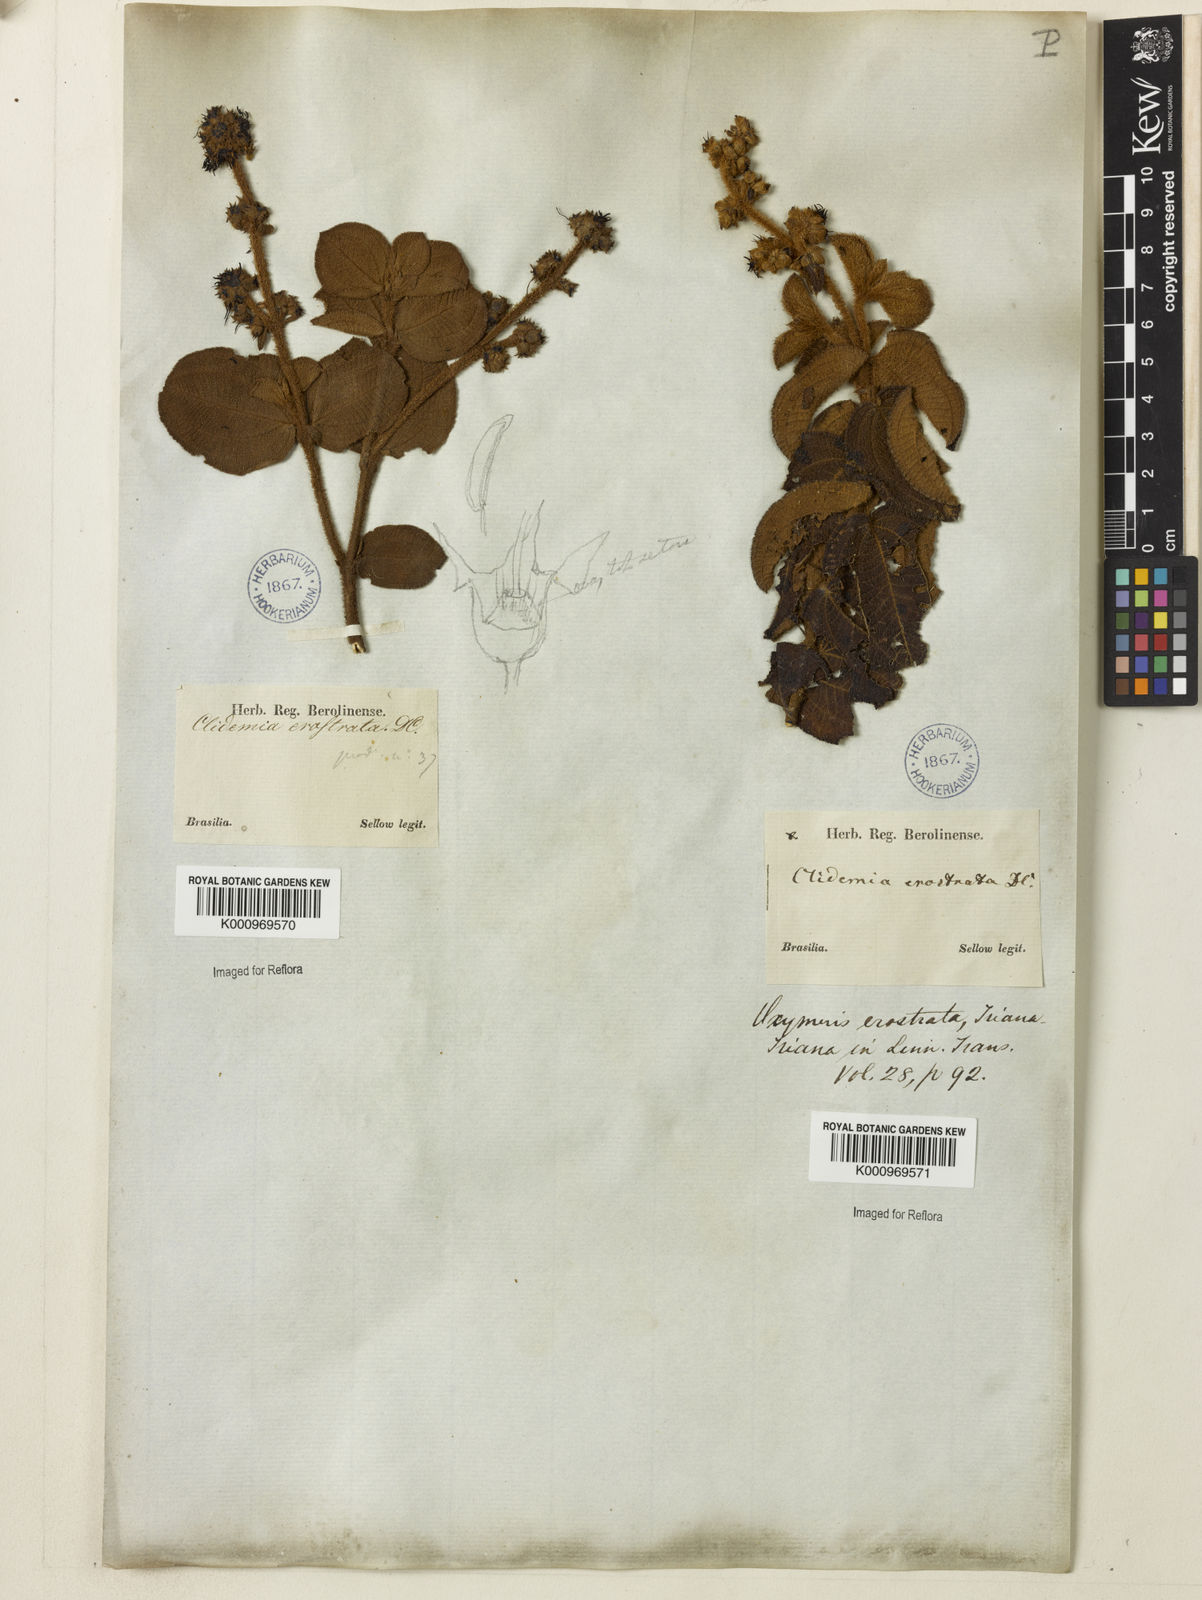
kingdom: Plantae
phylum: Tracheophyta
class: Magnoliopsida
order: Myrtales
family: Melastomataceae
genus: Miconia
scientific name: Miconia erostrata
